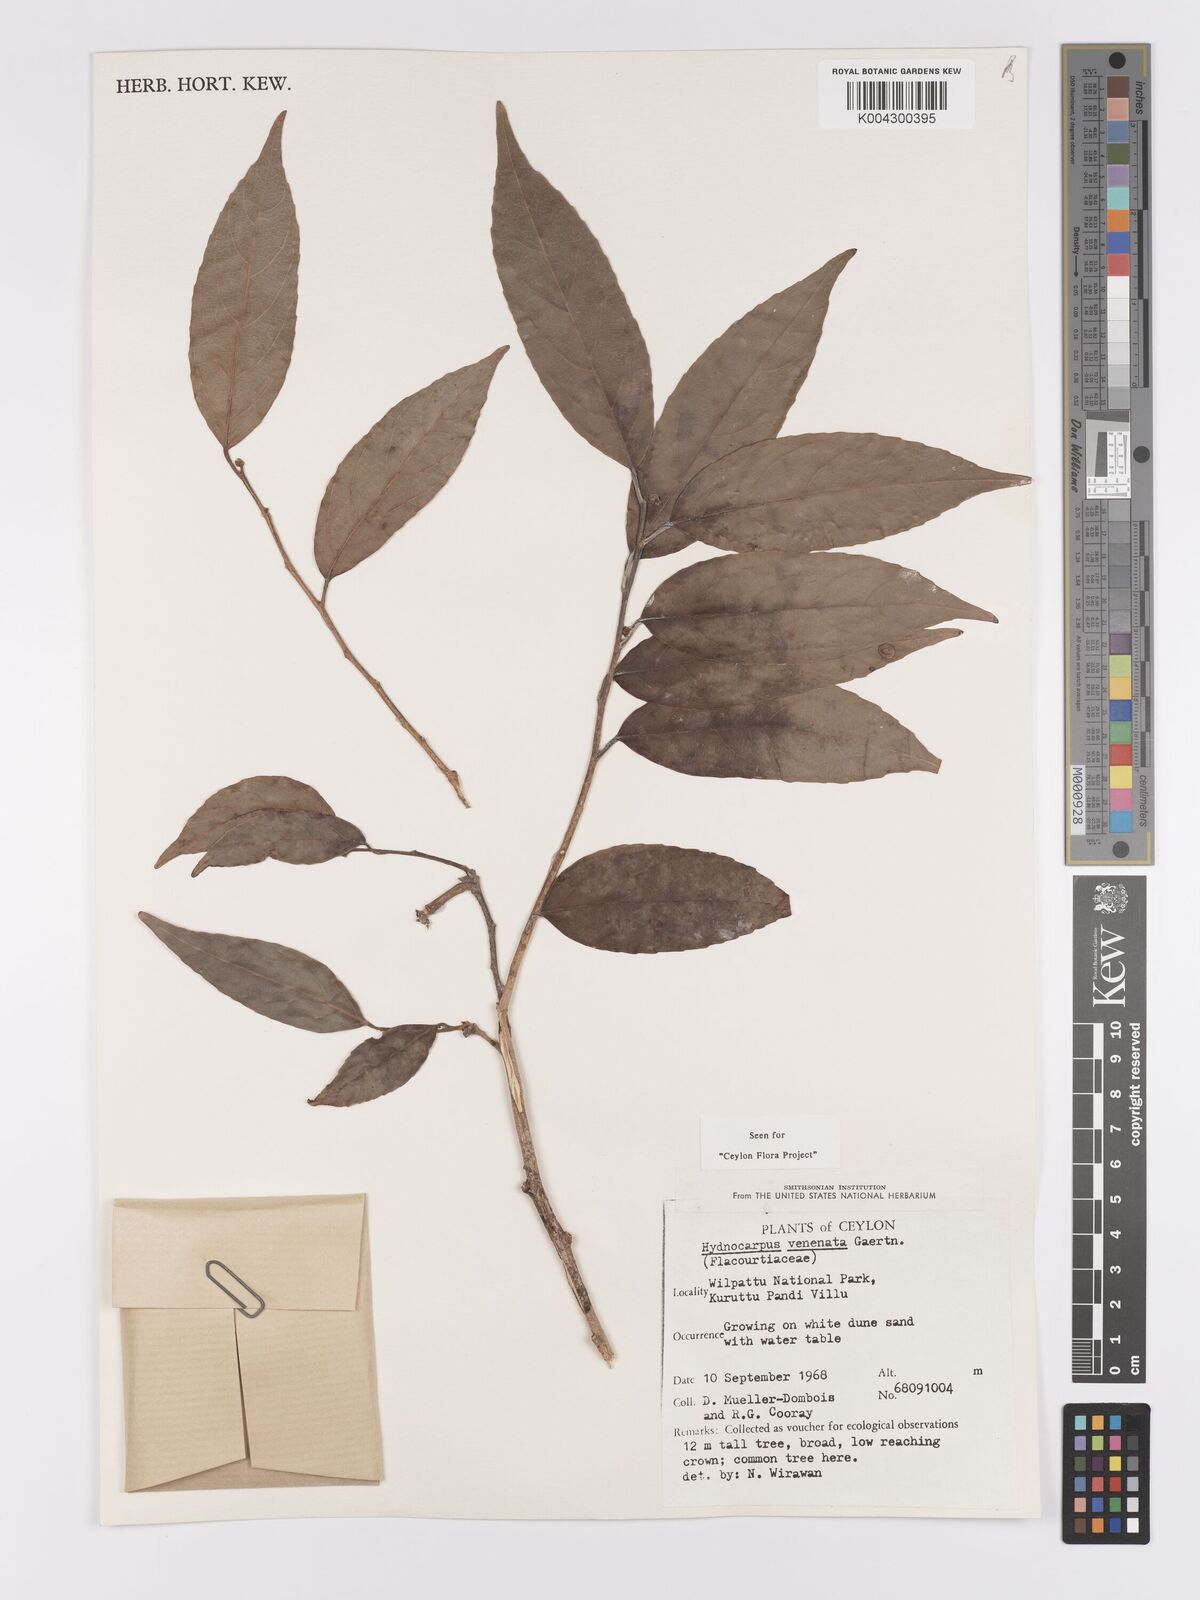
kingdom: Plantae
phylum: Tracheophyta
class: Magnoliopsida
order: Malpighiales
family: Achariaceae
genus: Hydnocarpus
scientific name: Hydnocarpus venenatus
